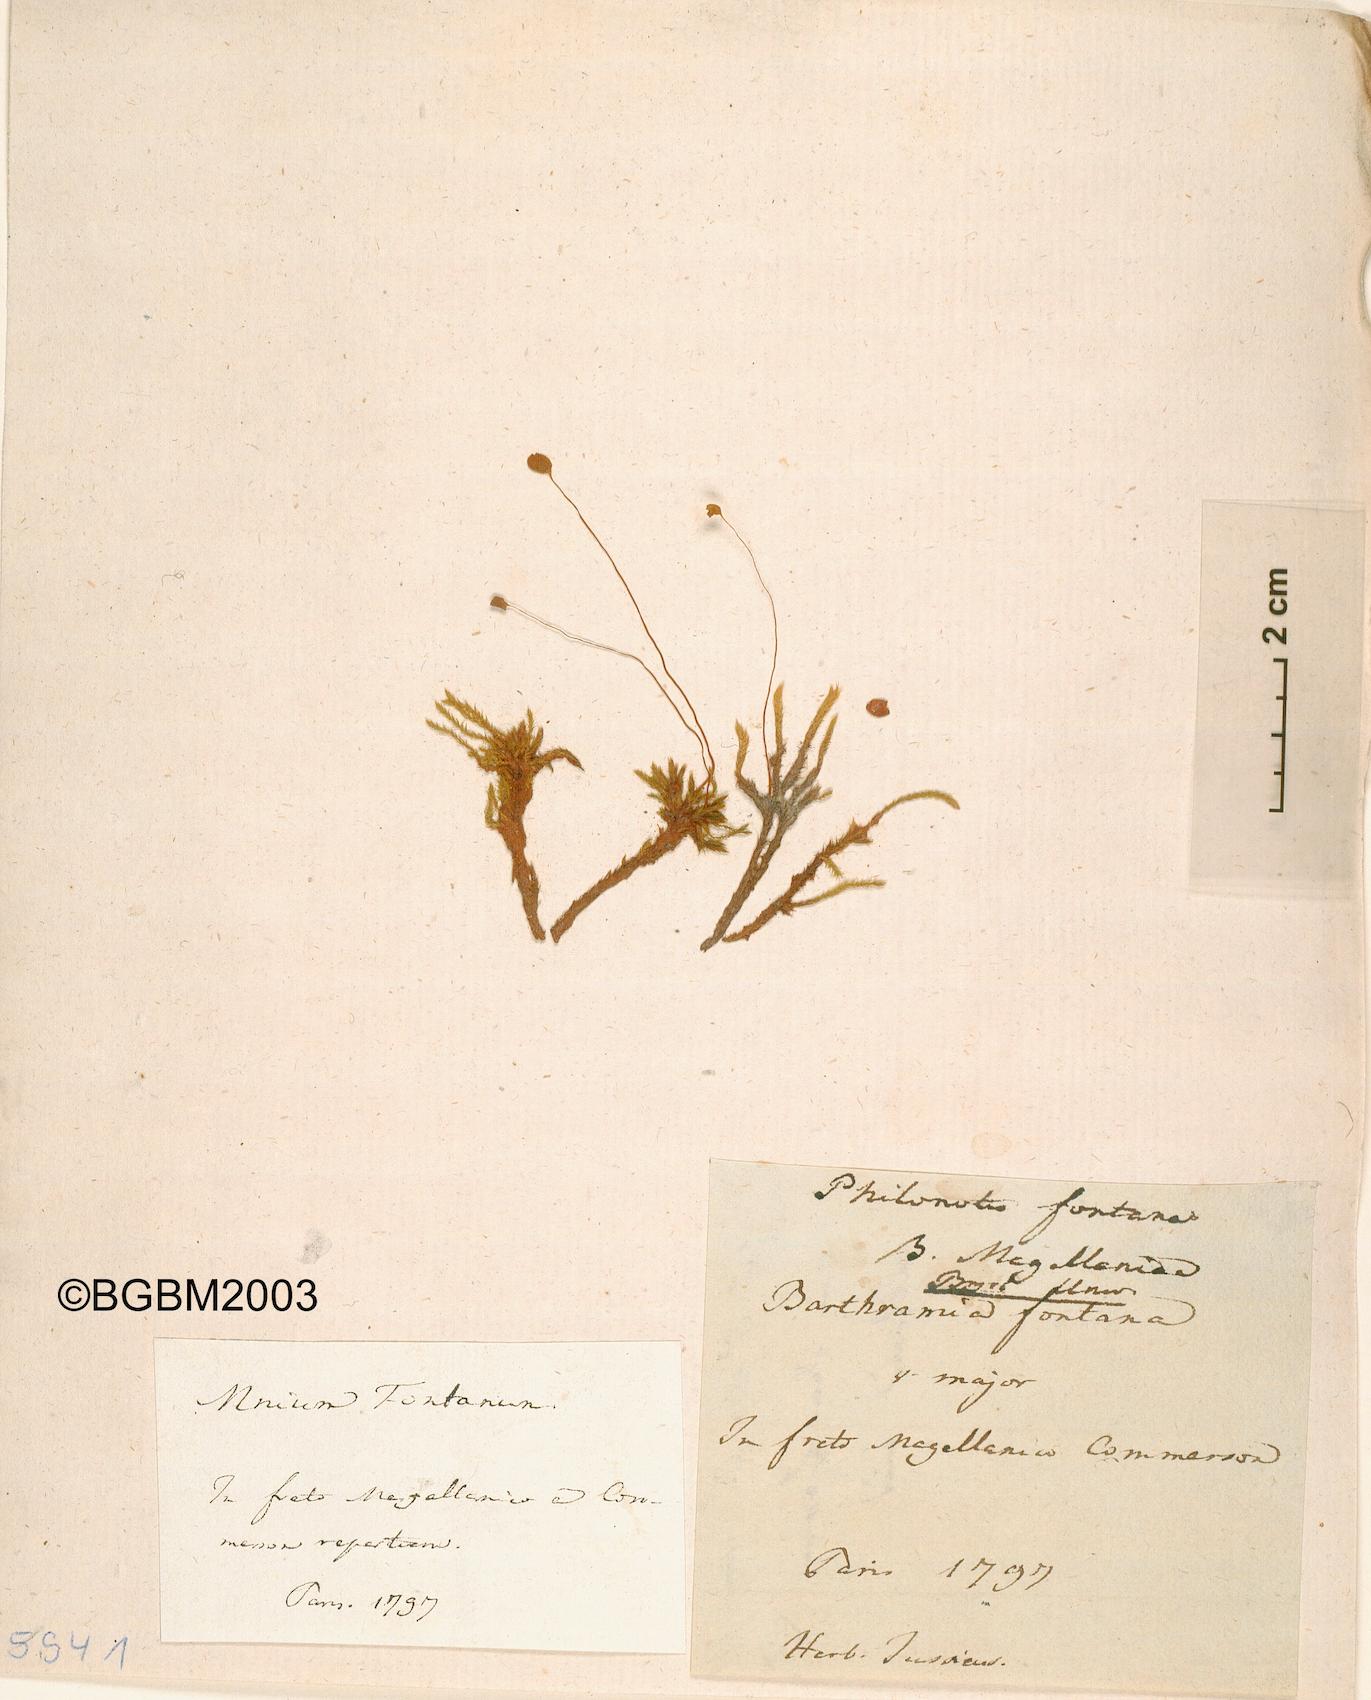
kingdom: Plantae
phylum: Bryophyta
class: Bryopsida
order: Bartramiales
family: Bartramiaceae
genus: Philonotis
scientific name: Philonotis fontana
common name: Fountain apple-moss
